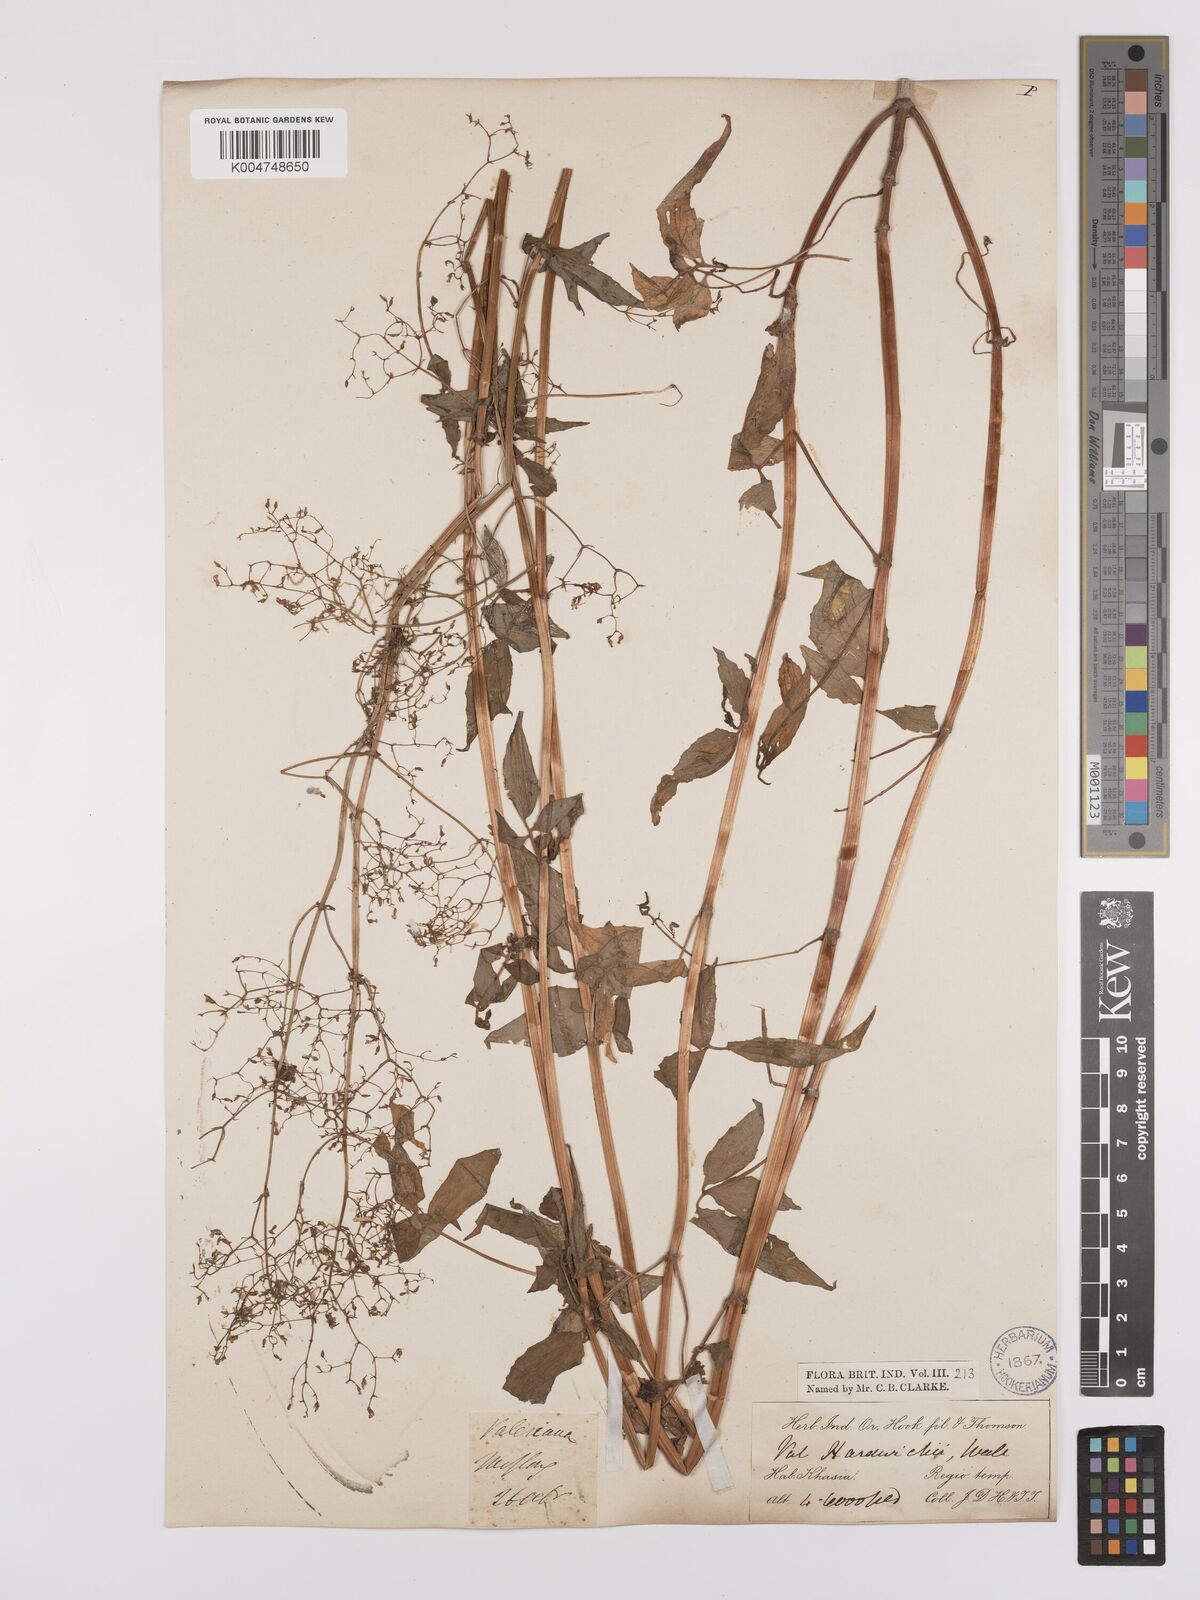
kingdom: Plantae
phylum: Tracheophyta
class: Magnoliopsida
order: Dipsacales
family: Caprifoliaceae
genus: Valeriana
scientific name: Valeriana hardwickei
